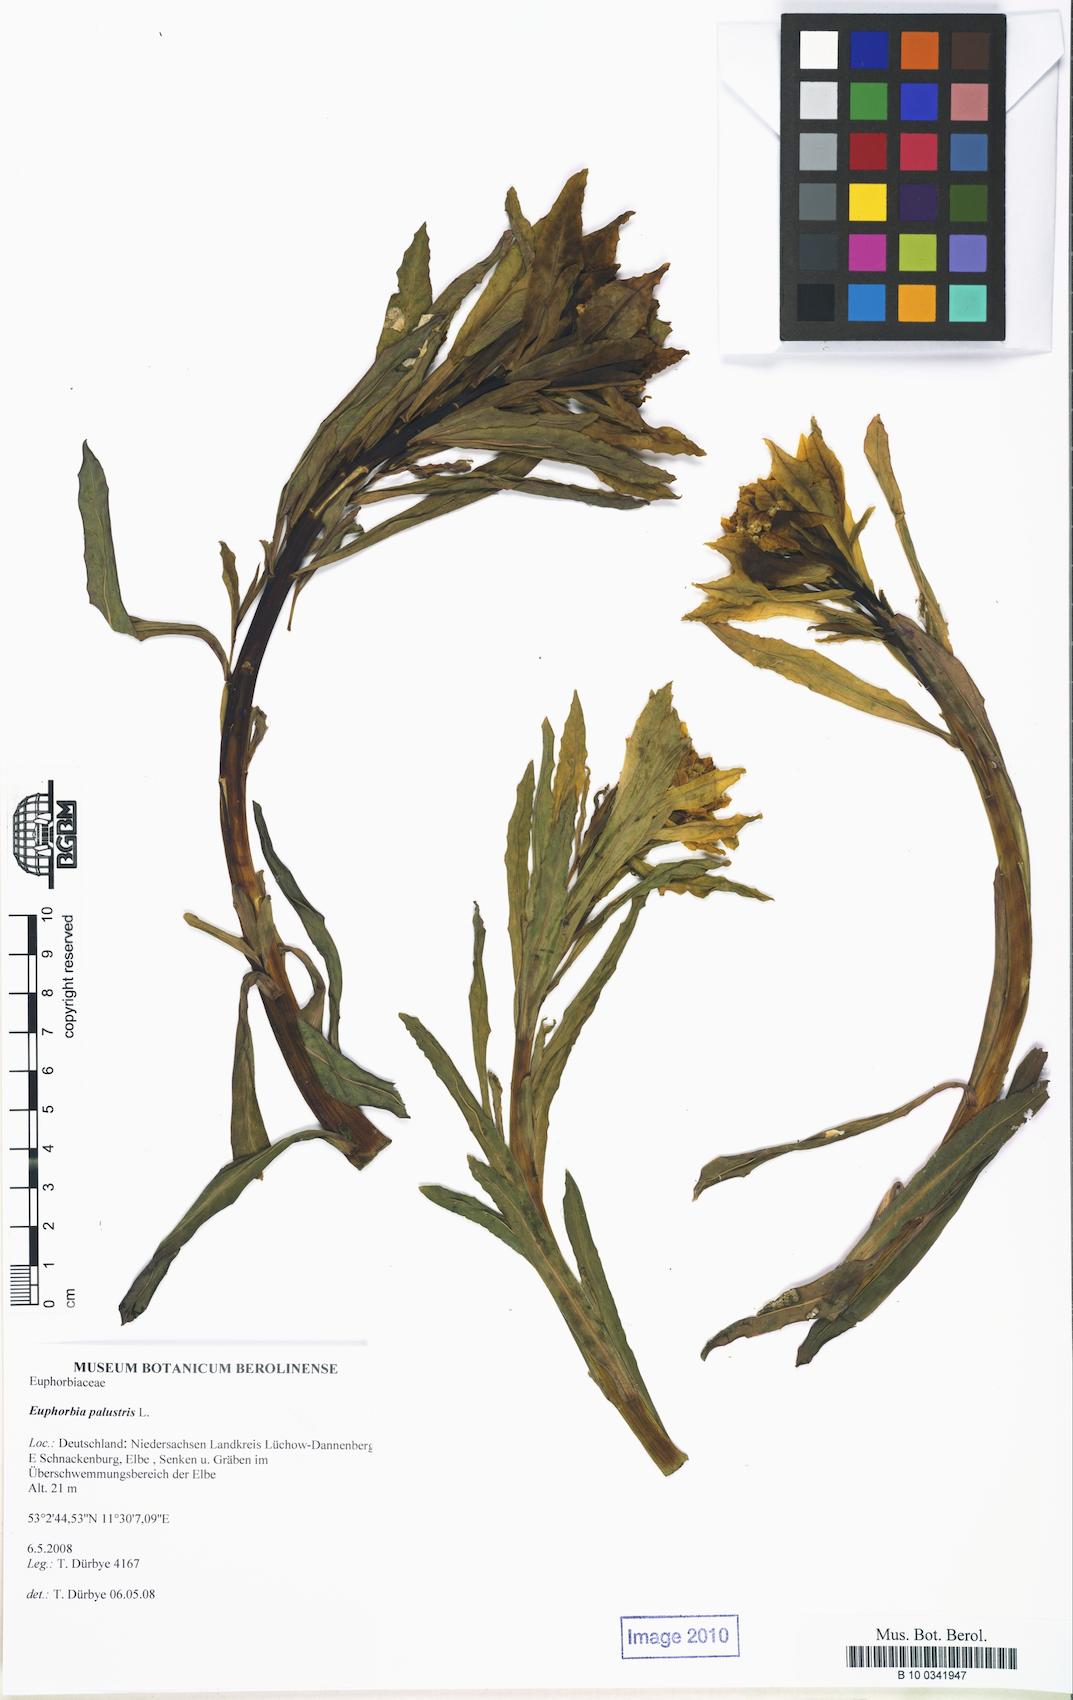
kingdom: Plantae
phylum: Tracheophyta
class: Magnoliopsida
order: Malpighiales
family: Euphorbiaceae
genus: Euphorbia
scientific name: Euphorbia palustris
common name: Marsh spurge
